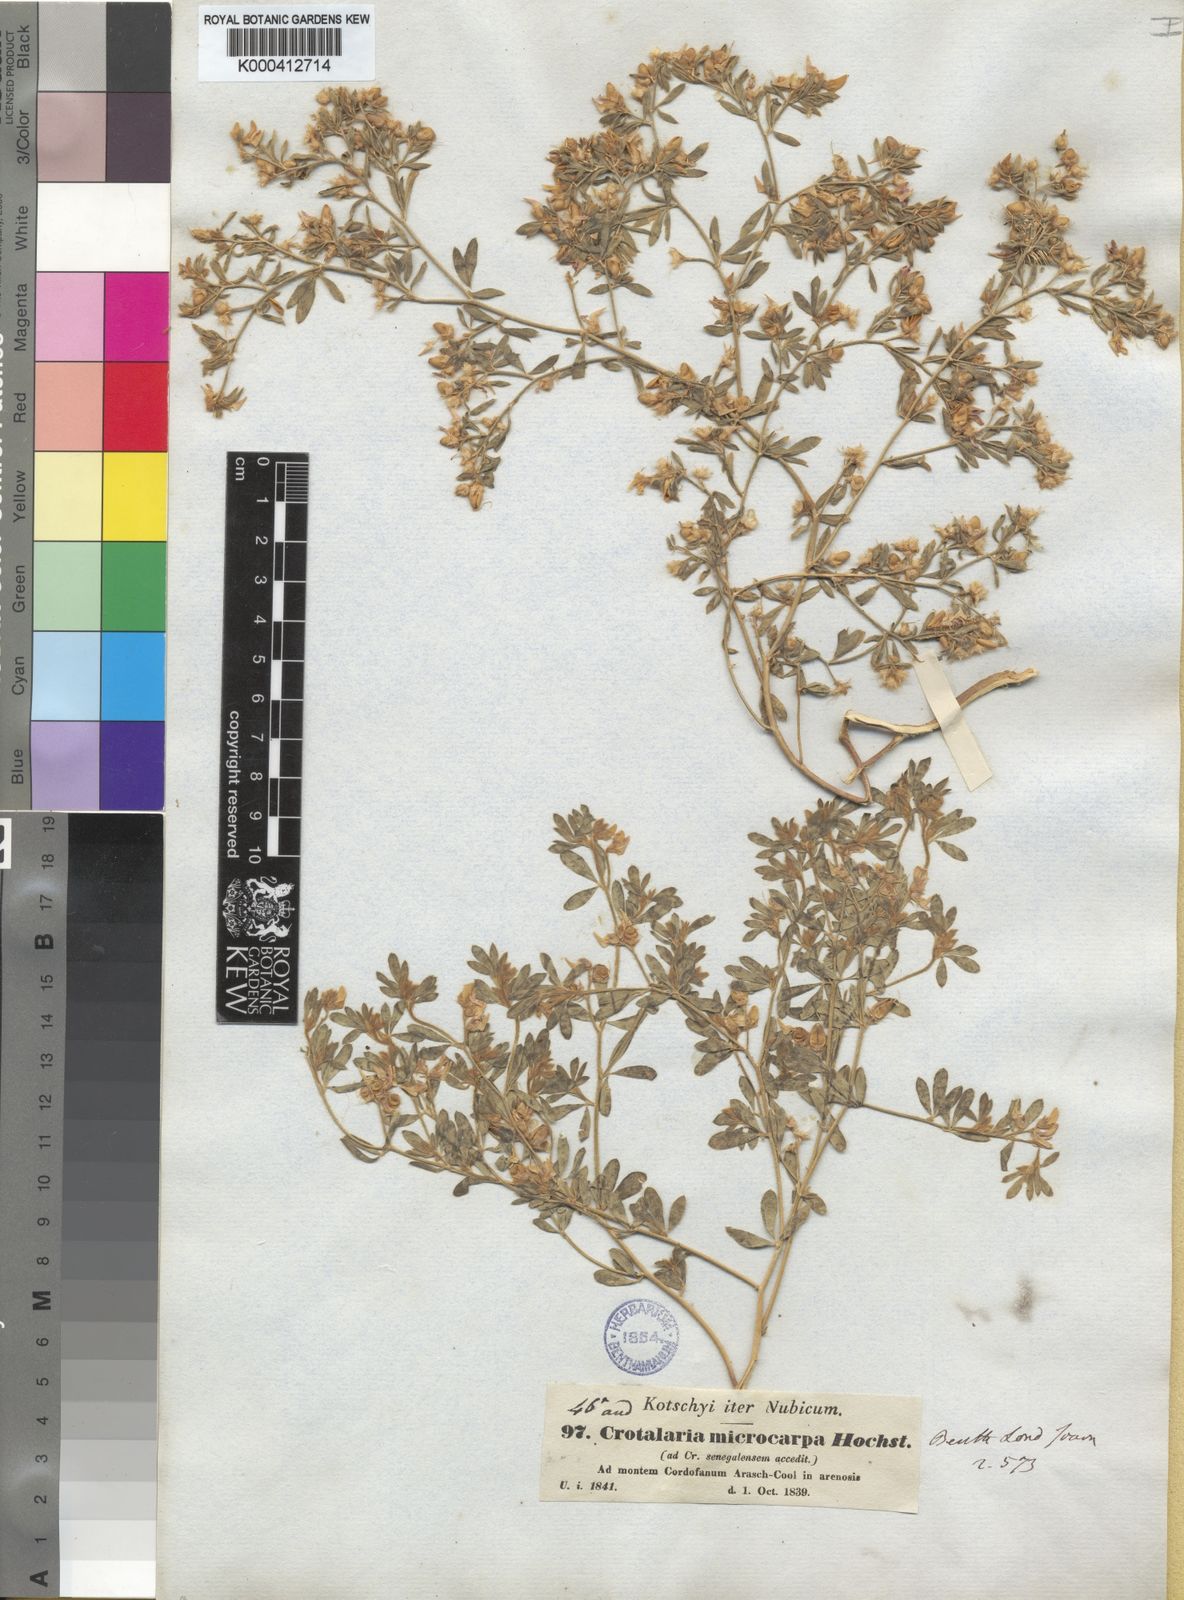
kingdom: Plantae
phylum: Tracheophyta
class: Magnoliopsida
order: Fabales
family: Fabaceae
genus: Crotalaria
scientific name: Crotalaria microcarpa
